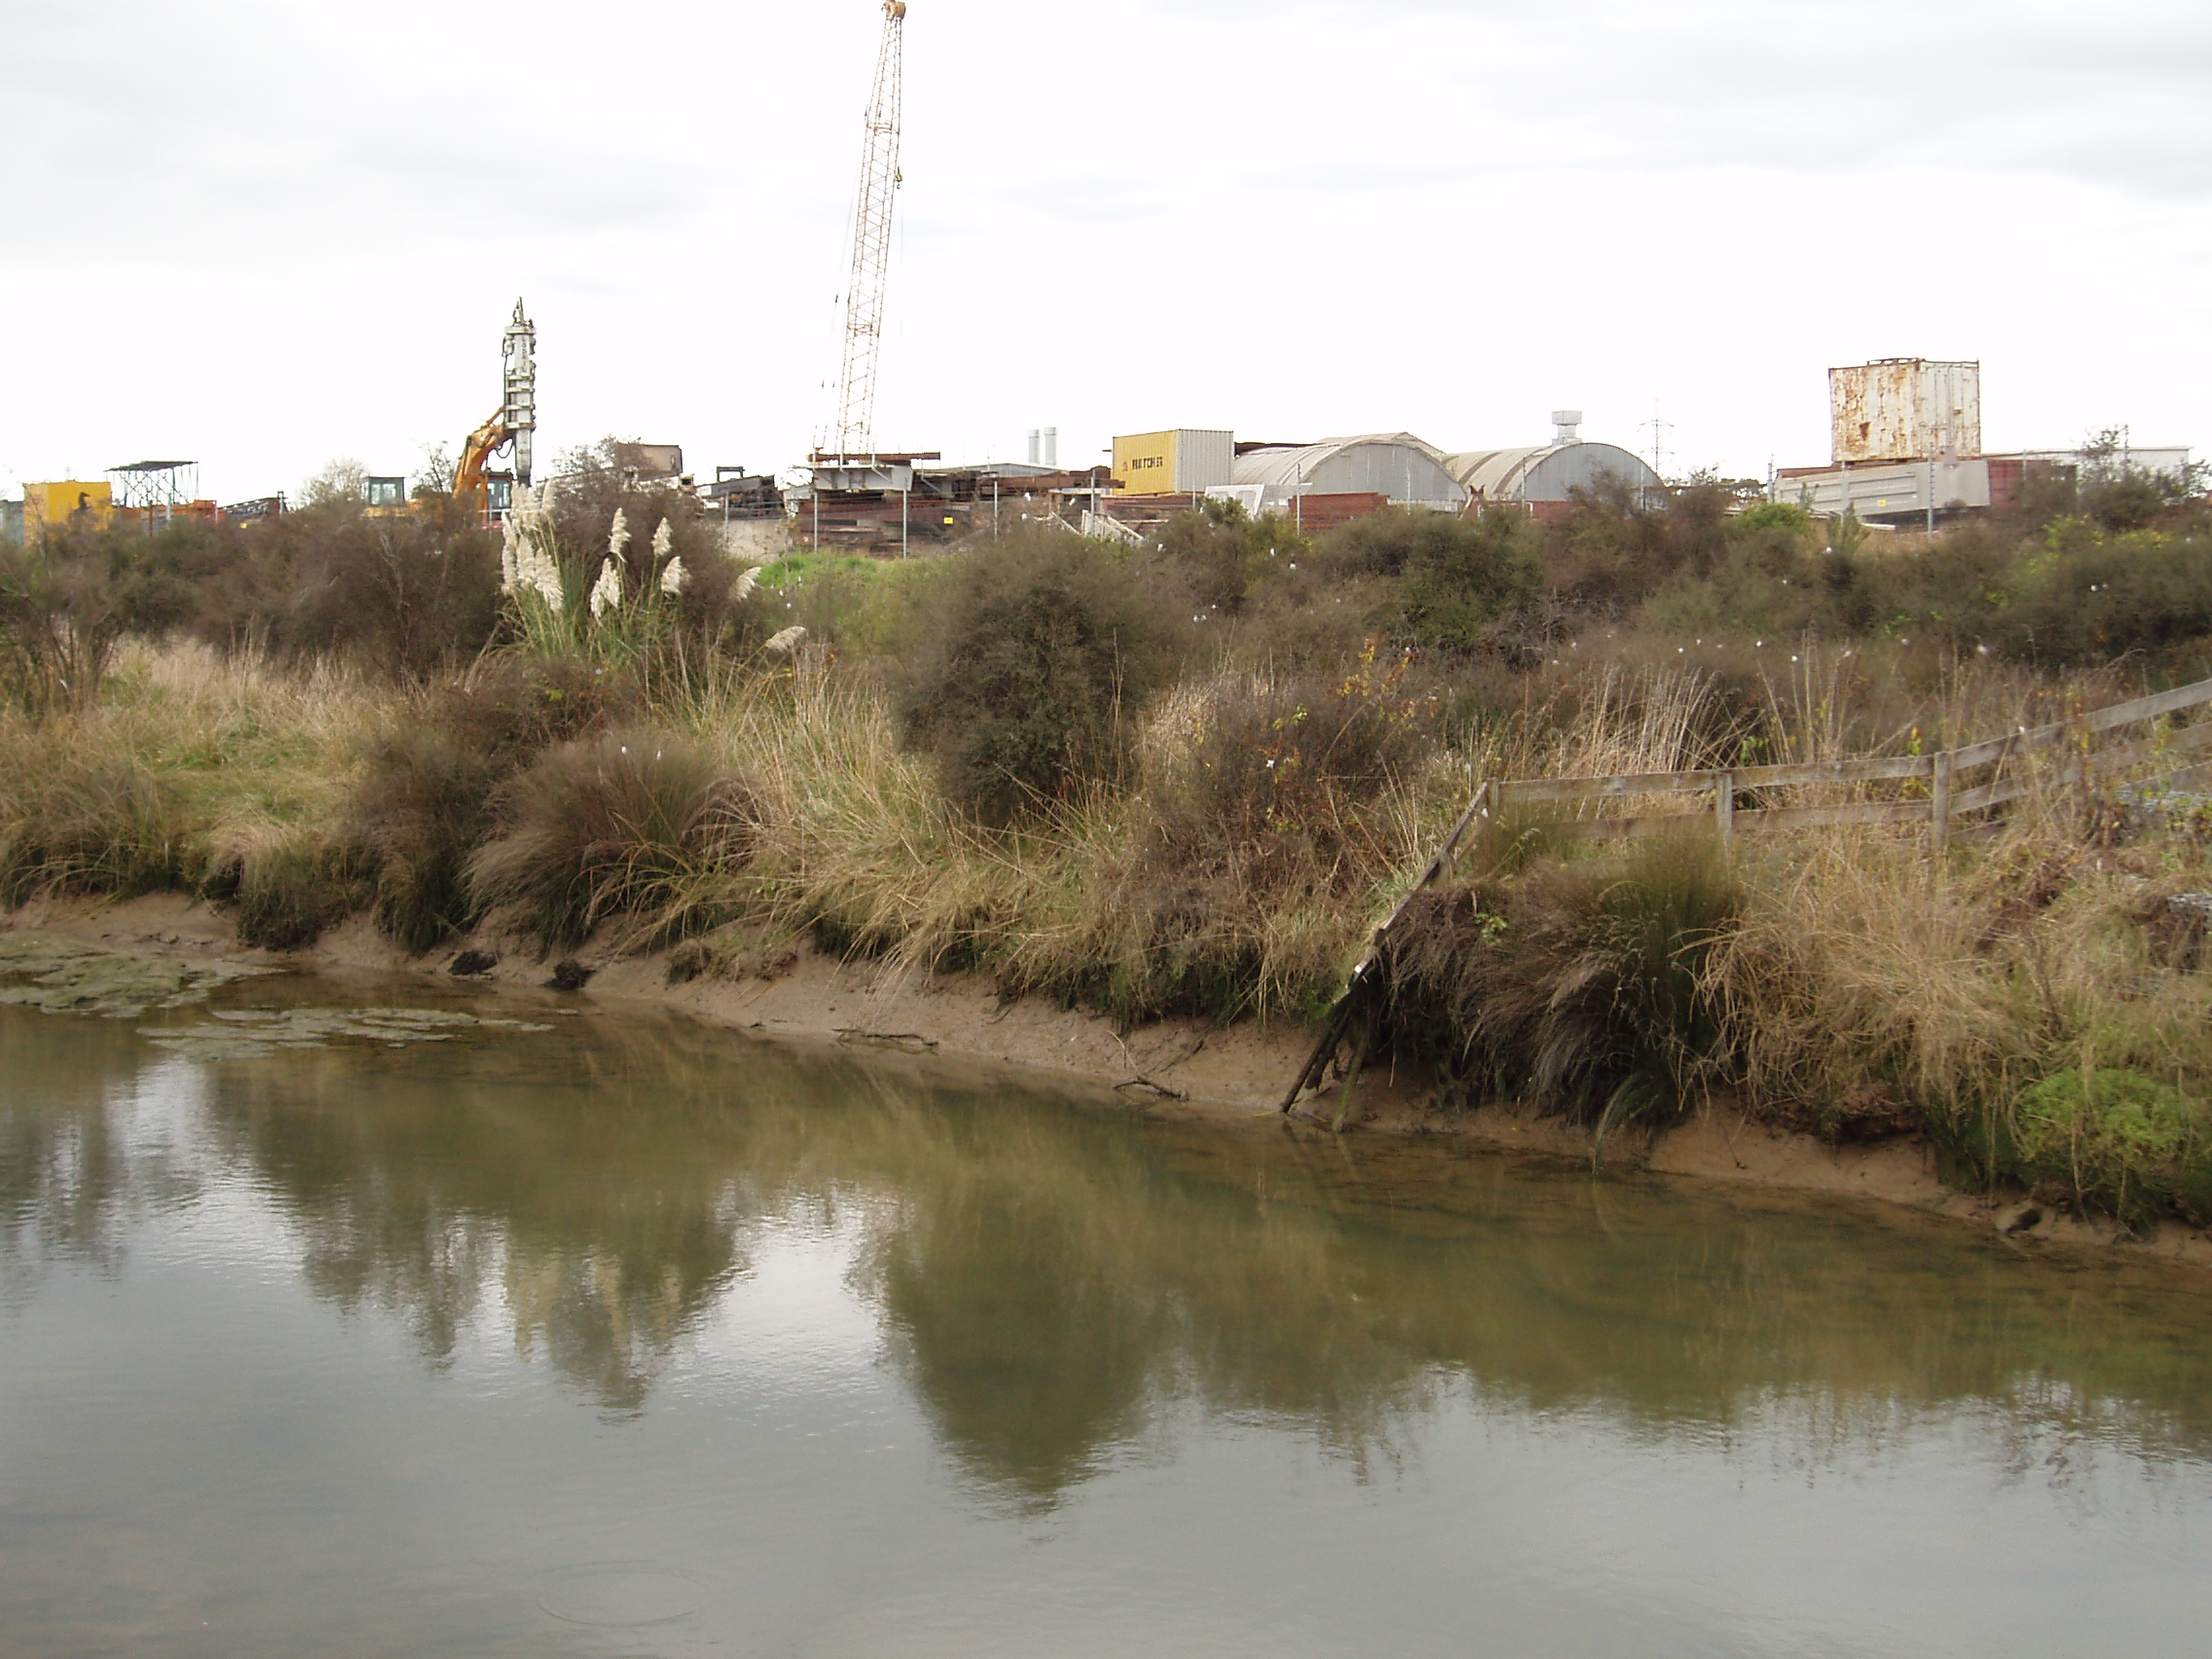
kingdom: Plantae
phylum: Tracheophyta
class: Magnoliopsida
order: Gentianales
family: Rubiaceae
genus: Coprosma
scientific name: Coprosma propinqua
